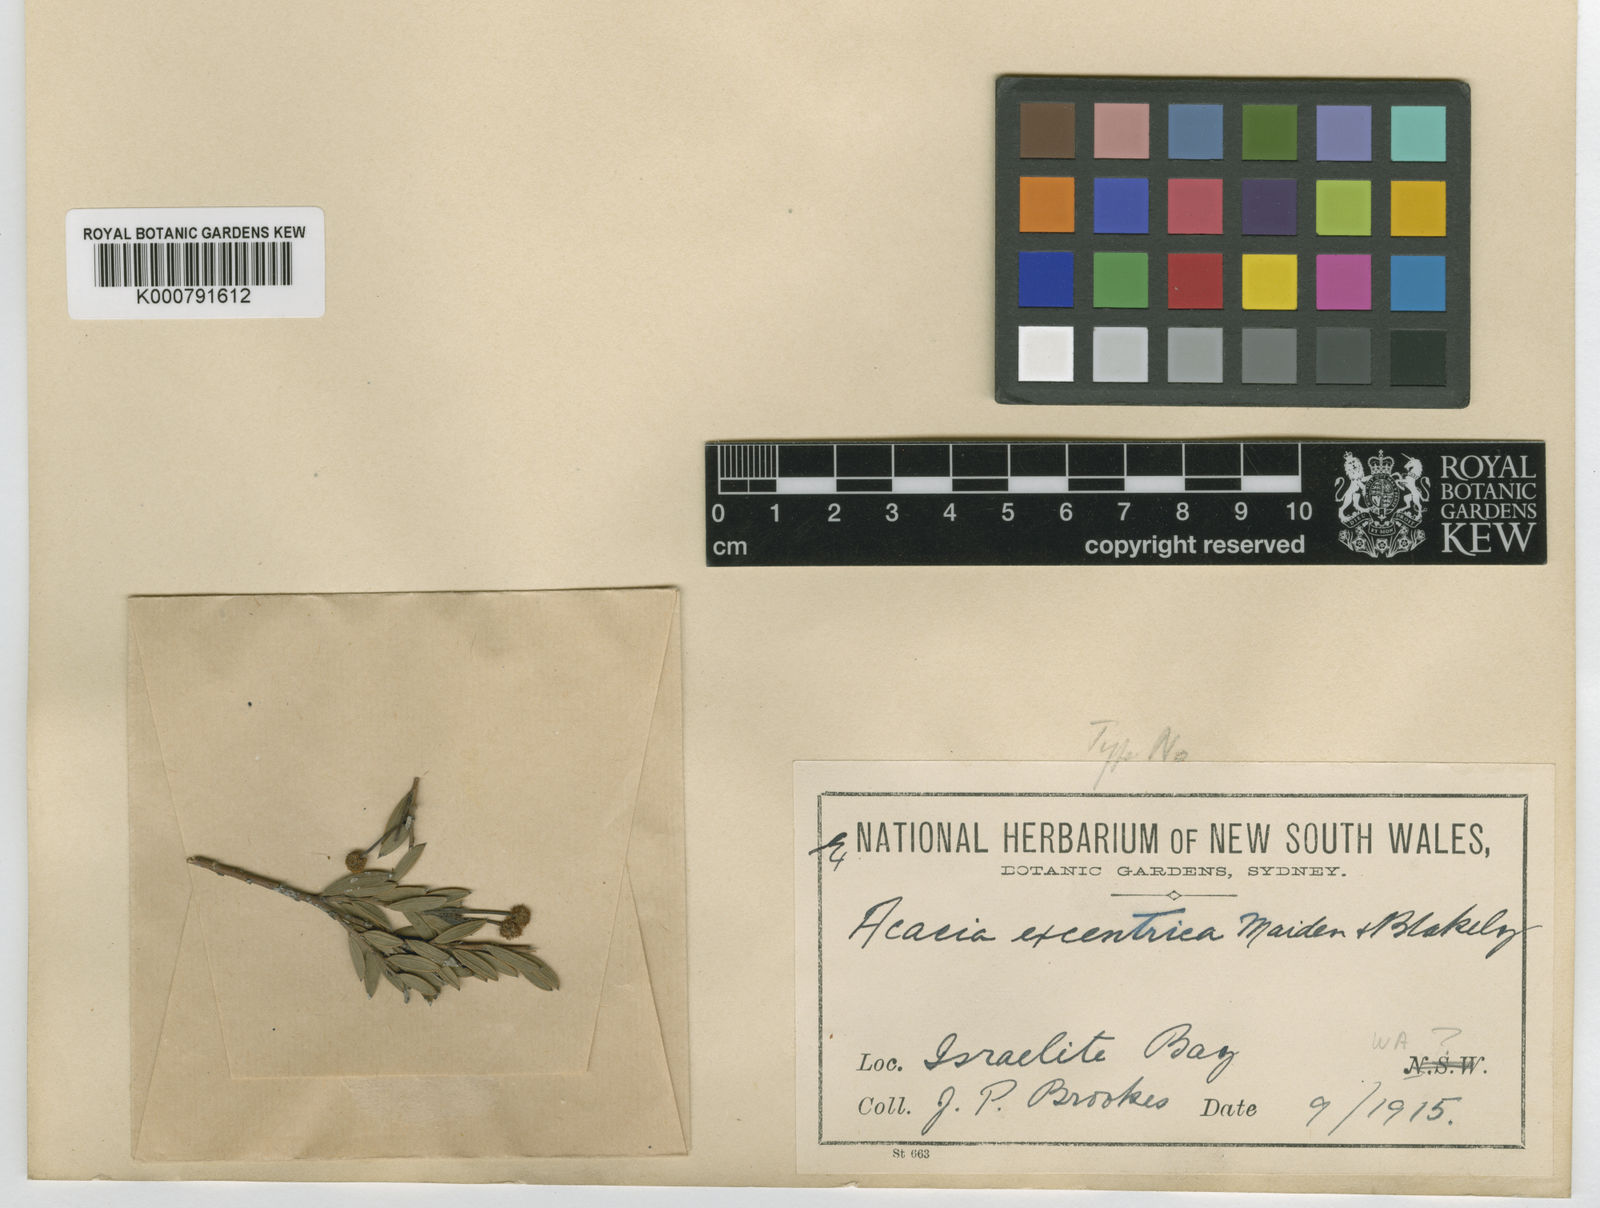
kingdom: Plantae
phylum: Tracheophyta
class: Magnoliopsida
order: Fabales
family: Fabaceae
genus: Acacia
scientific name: Acacia excentrica
